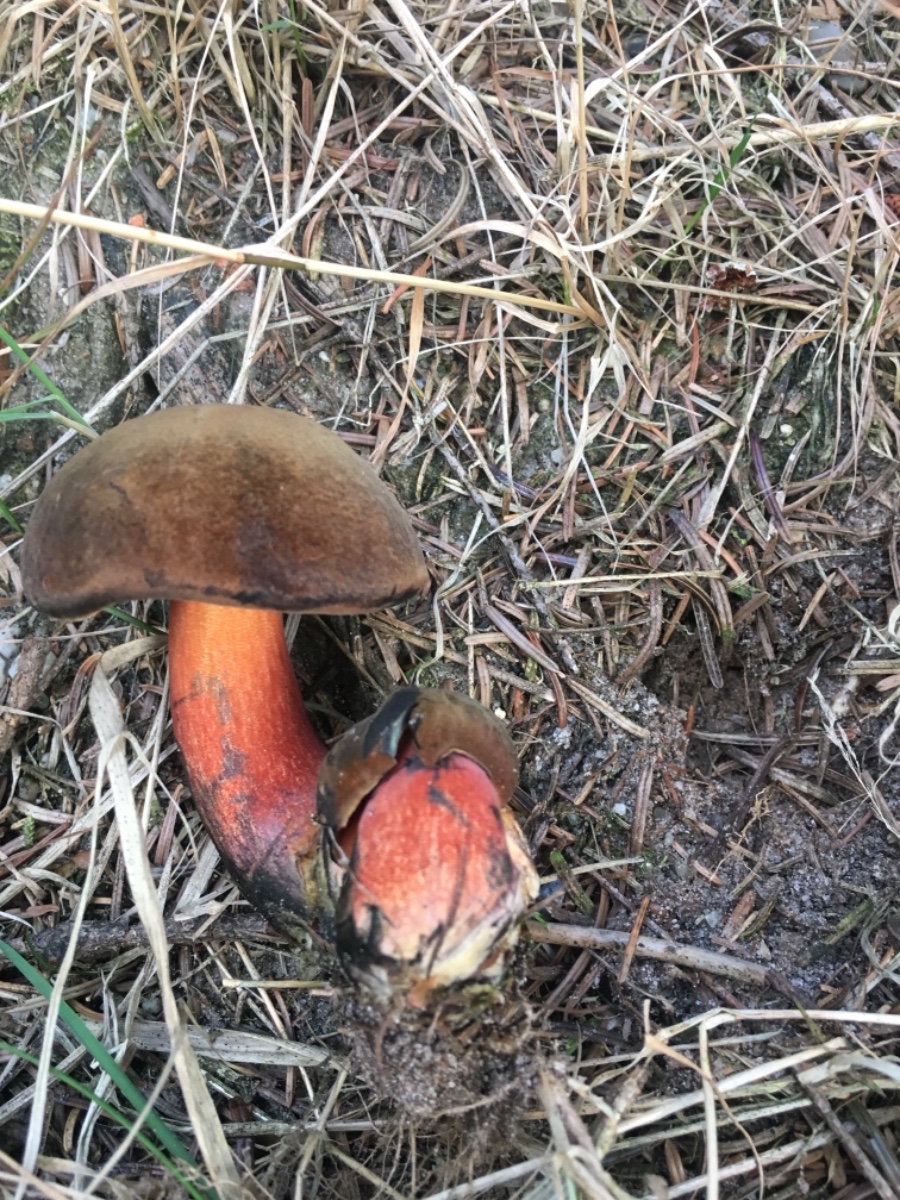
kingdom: Fungi
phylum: Basidiomycota
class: Agaricomycetes
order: Boletales
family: Boletaceae
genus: Neoboletus
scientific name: Neoboletus erythropus
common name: punktstokket indigorørhat
